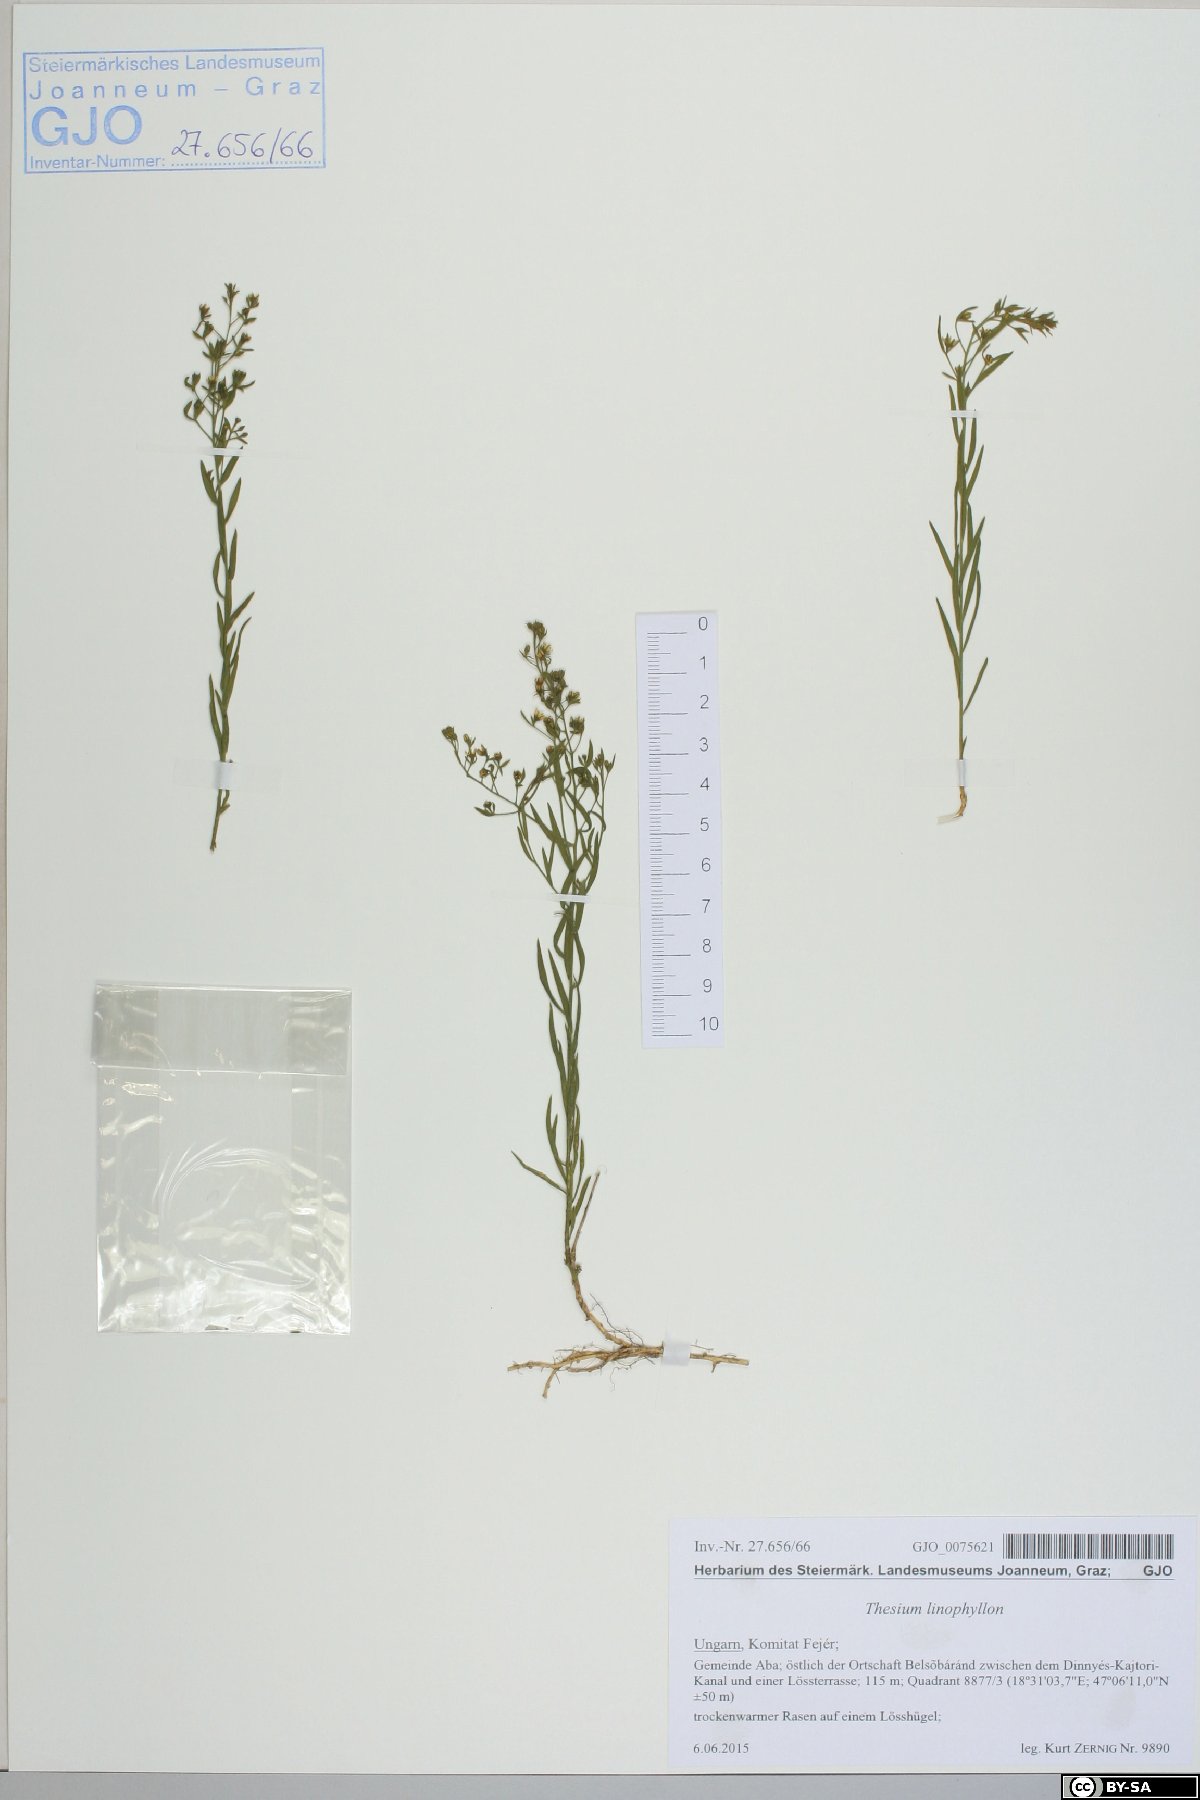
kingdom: Plantae
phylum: Tracheophyta
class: Magnoliopsida
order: Santalales
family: Thesiaceae
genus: Thesium
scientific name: Thesium linophyllon
